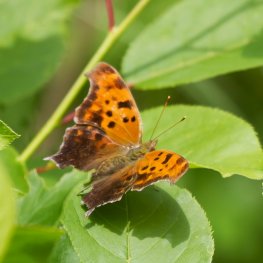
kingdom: Animalia
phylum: Arthropoda
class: Insecta
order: Lepidoptera
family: Nymphalidae
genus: Polygonia
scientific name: Polygonia interrogationis
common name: Question Mark
